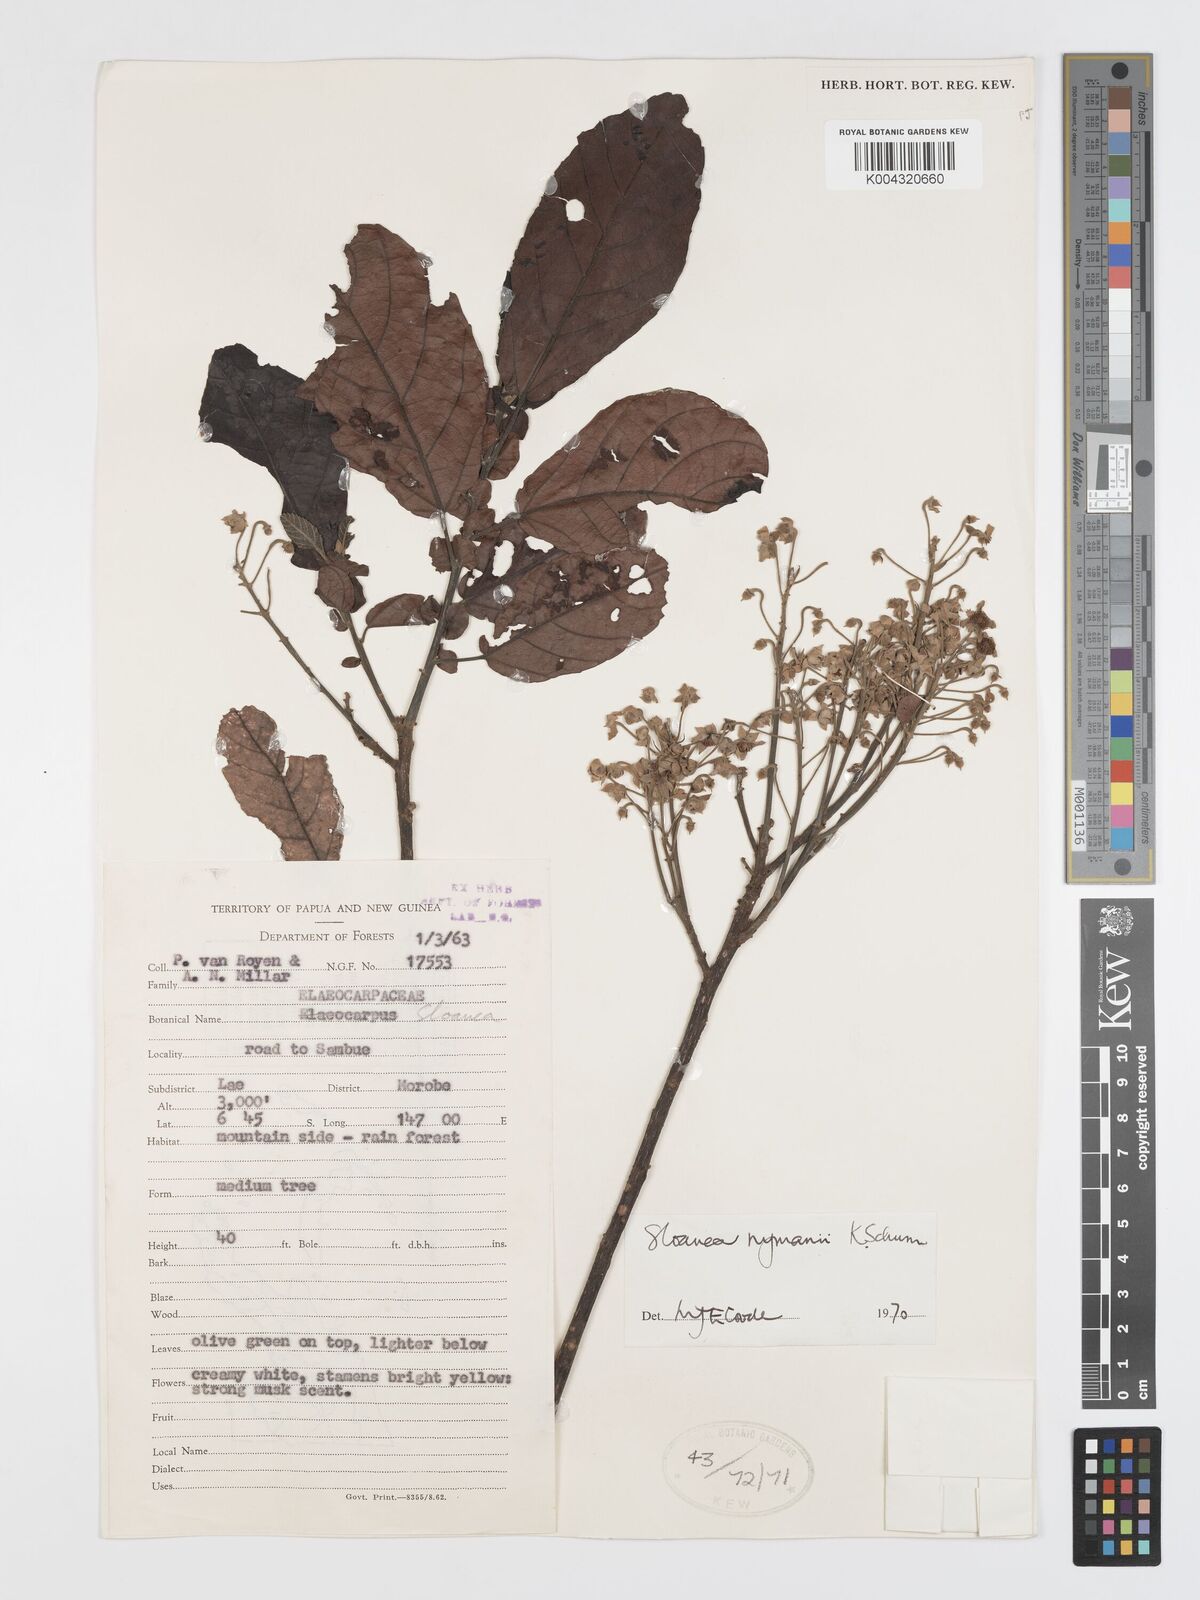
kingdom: Plantae
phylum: Tracheophyta
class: Magnoliopsida
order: Oxalidales
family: Elaeocarpaceae
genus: Sloanea
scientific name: Sloanea nymanii
